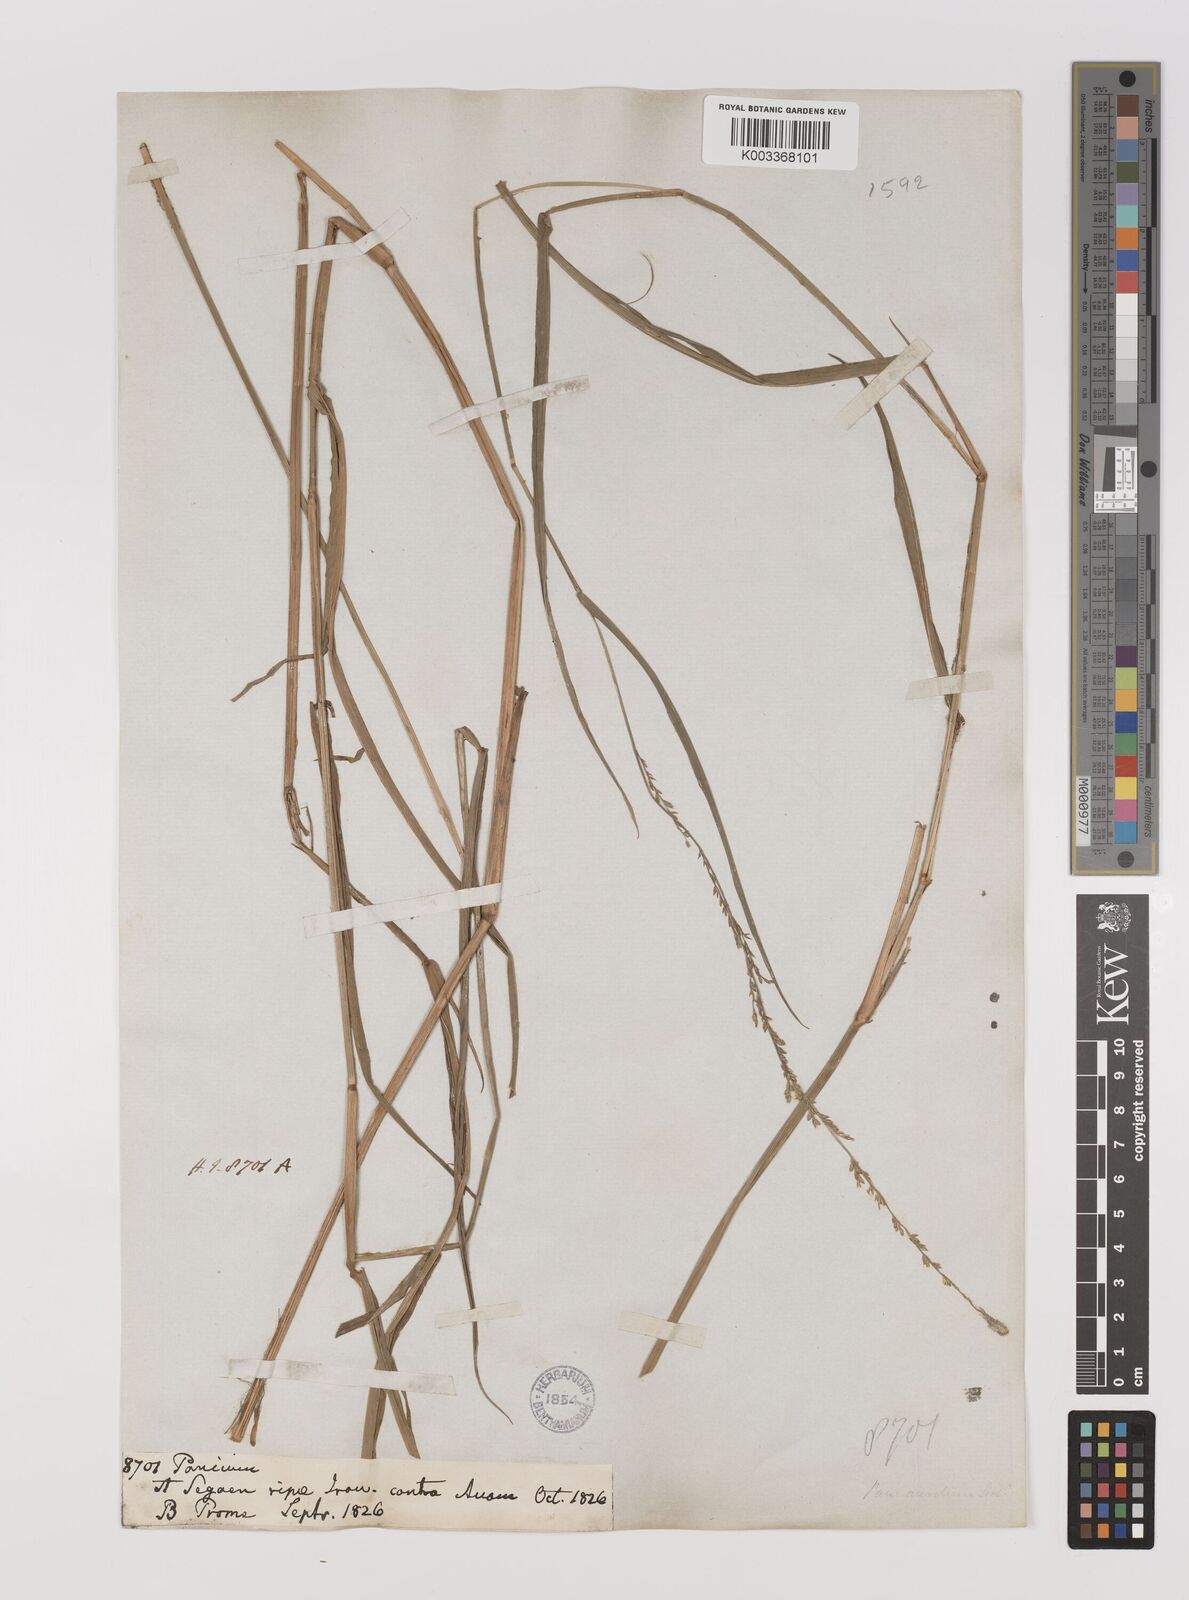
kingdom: Plantae
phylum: Tracheophyta
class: Liliopsida
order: Poales
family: Poaceae
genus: Hymenachne
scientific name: Hymenachne aurita
